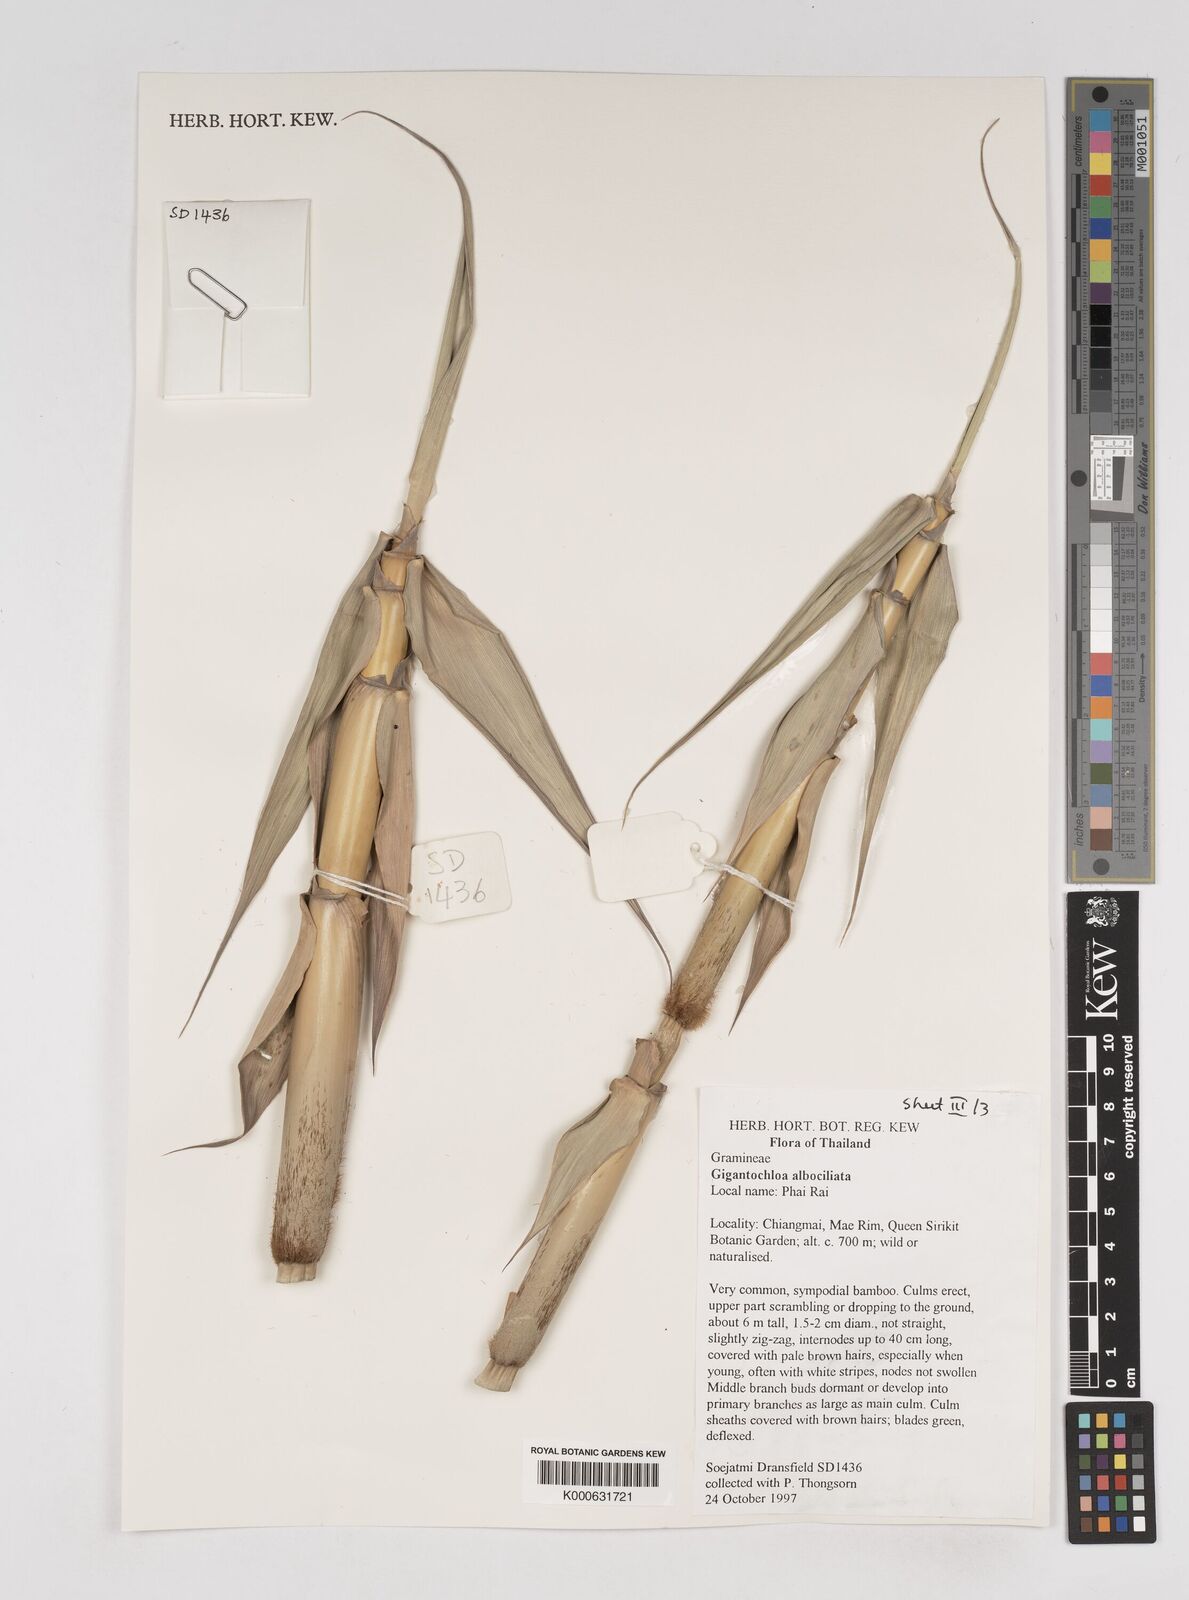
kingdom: Plantae
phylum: Tracheophyta
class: Liliopsida
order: Poales
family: Poaceae
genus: Gigantochloa
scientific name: Gigantochloa albociliata
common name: White-fringe gigantochloa
